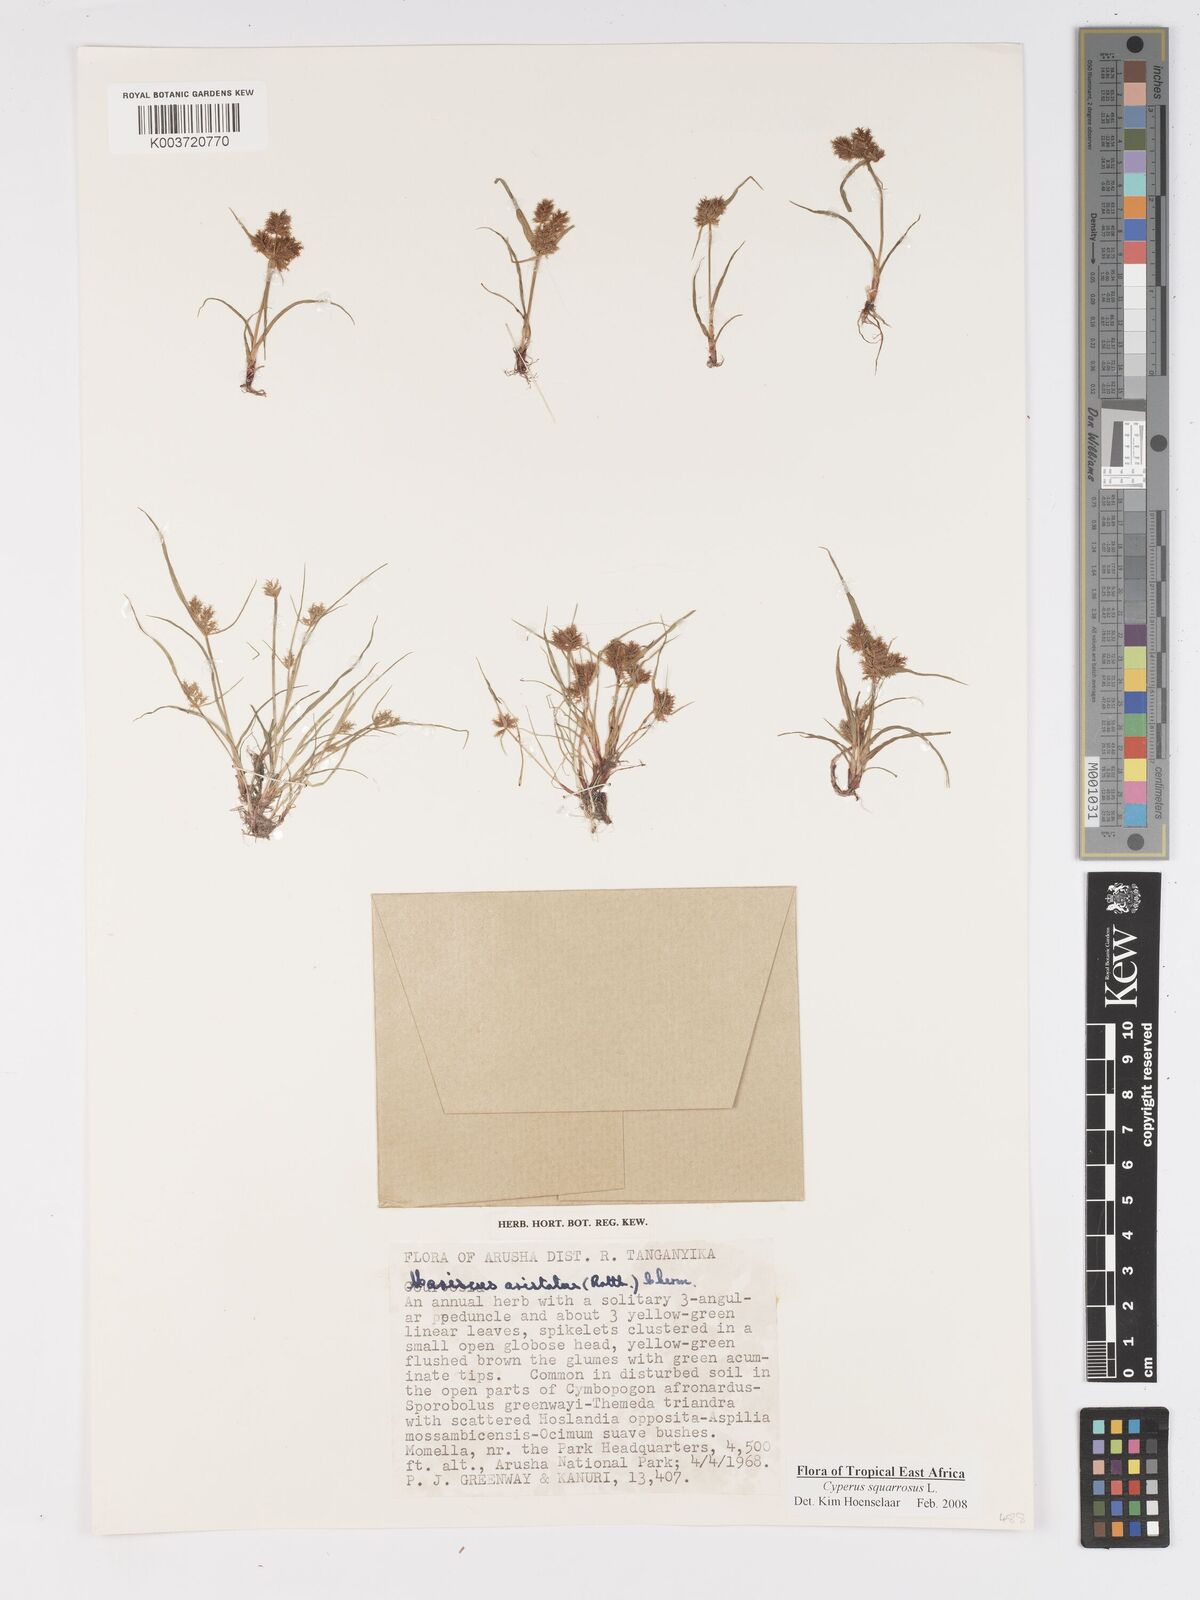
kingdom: Plantae
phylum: Tracheophyta
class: Liliopsida
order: Poales
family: Cyperaceae
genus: Cyperus
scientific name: Cyperus squarrosus
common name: Awned cyperus
